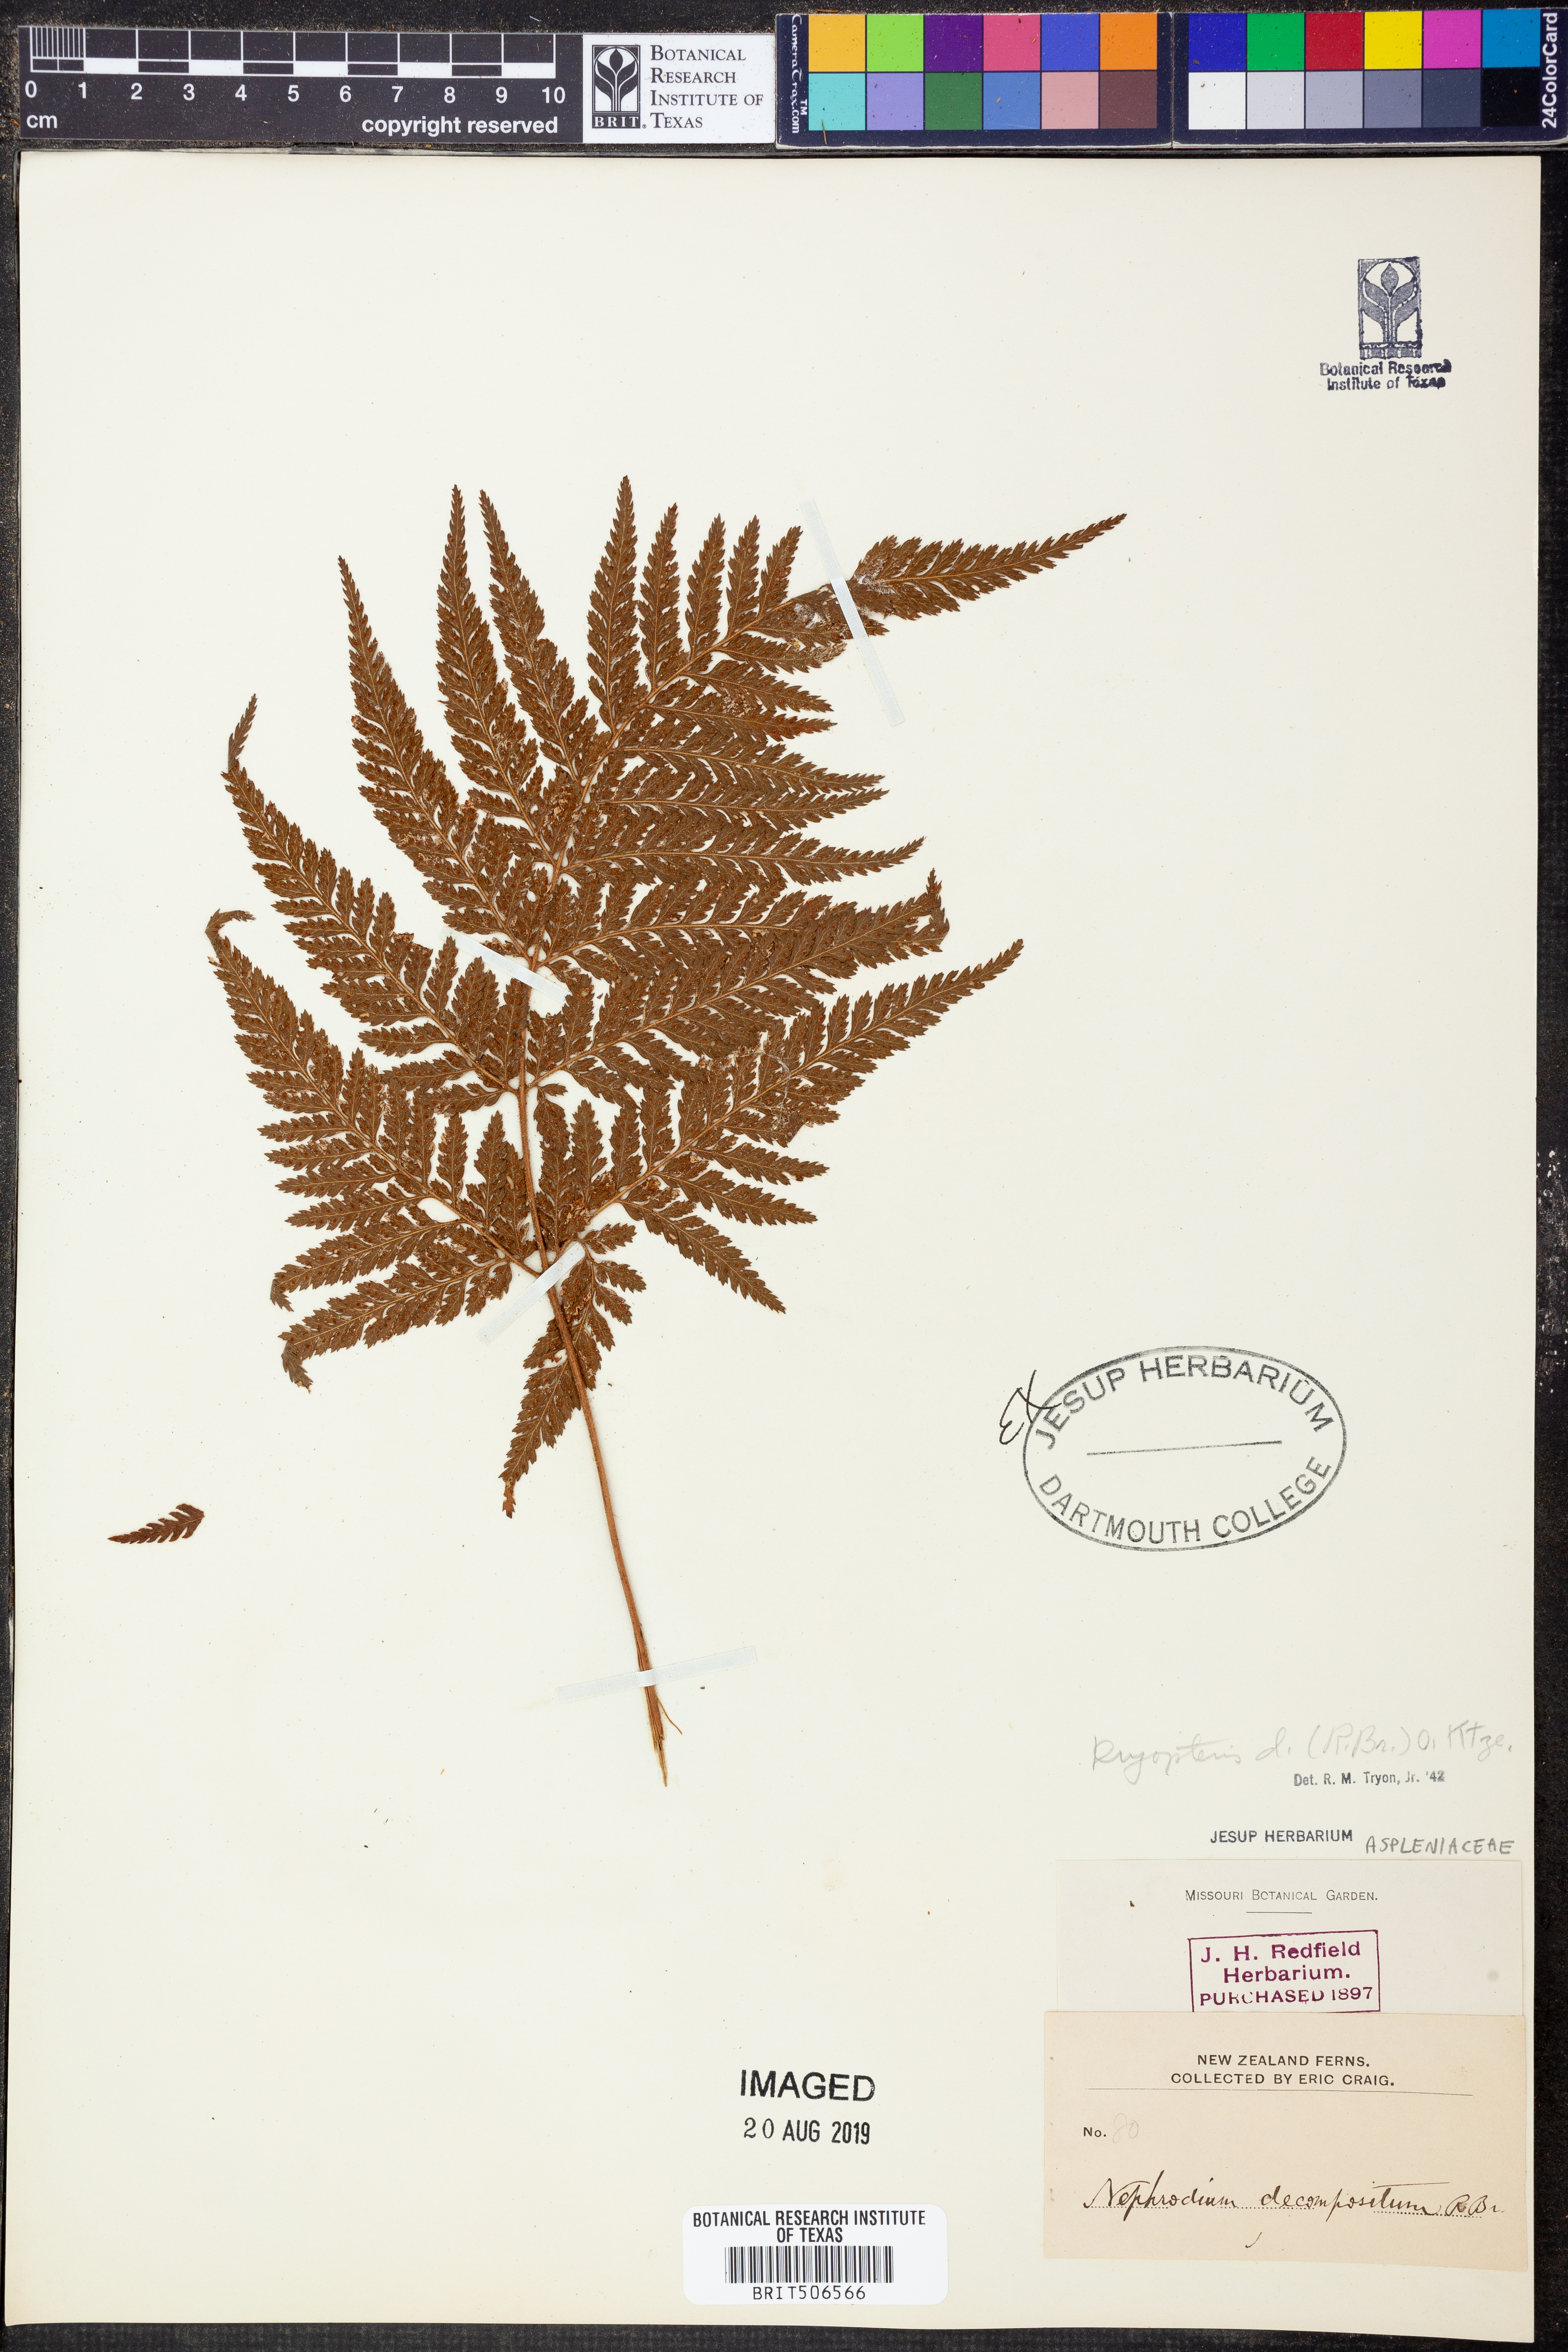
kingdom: Plantae
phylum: Tracheophyta
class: Polypodiopsida
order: Polypodiales
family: Dryopteridaceae
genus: Lastreopsis
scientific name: Lastreopsis decomposita
